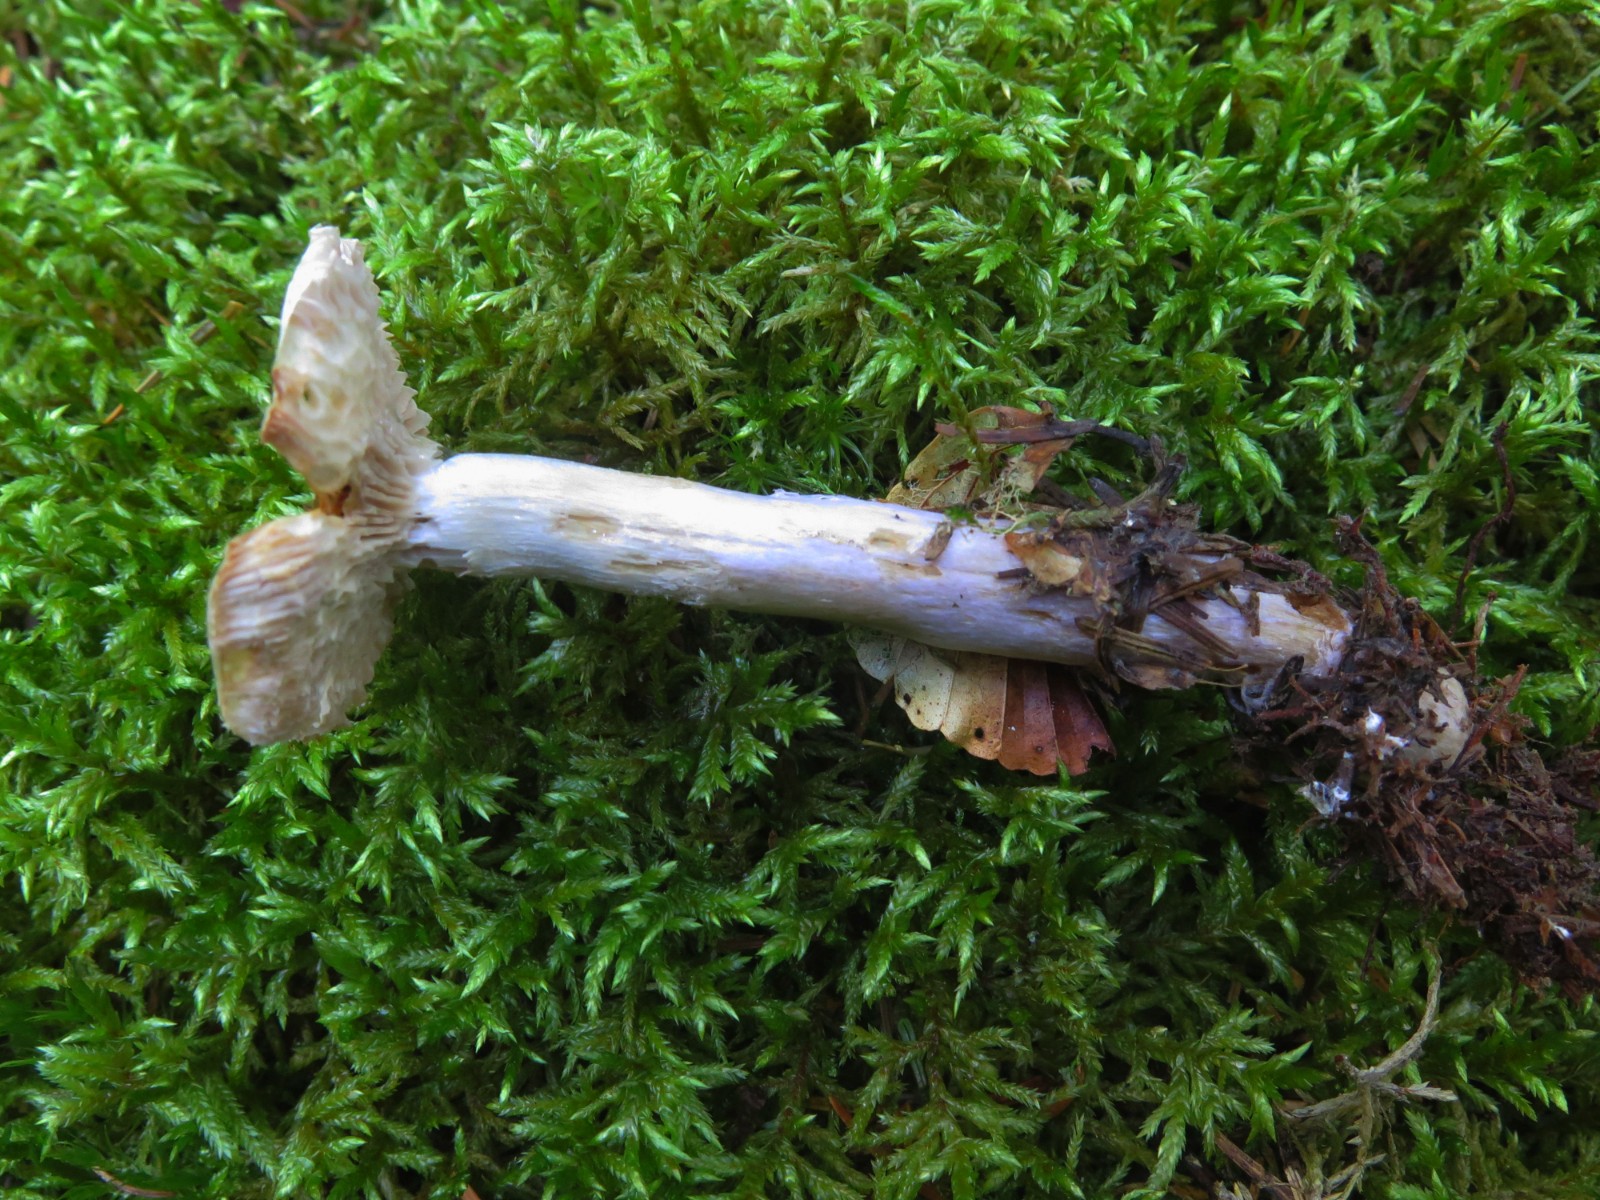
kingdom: Fungi
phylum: Basidiomycota
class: Agaricomycetes
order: Agaricales
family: Cortinariaceae
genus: Cortinarius
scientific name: Cortinarius elatior
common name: høj slørhat
